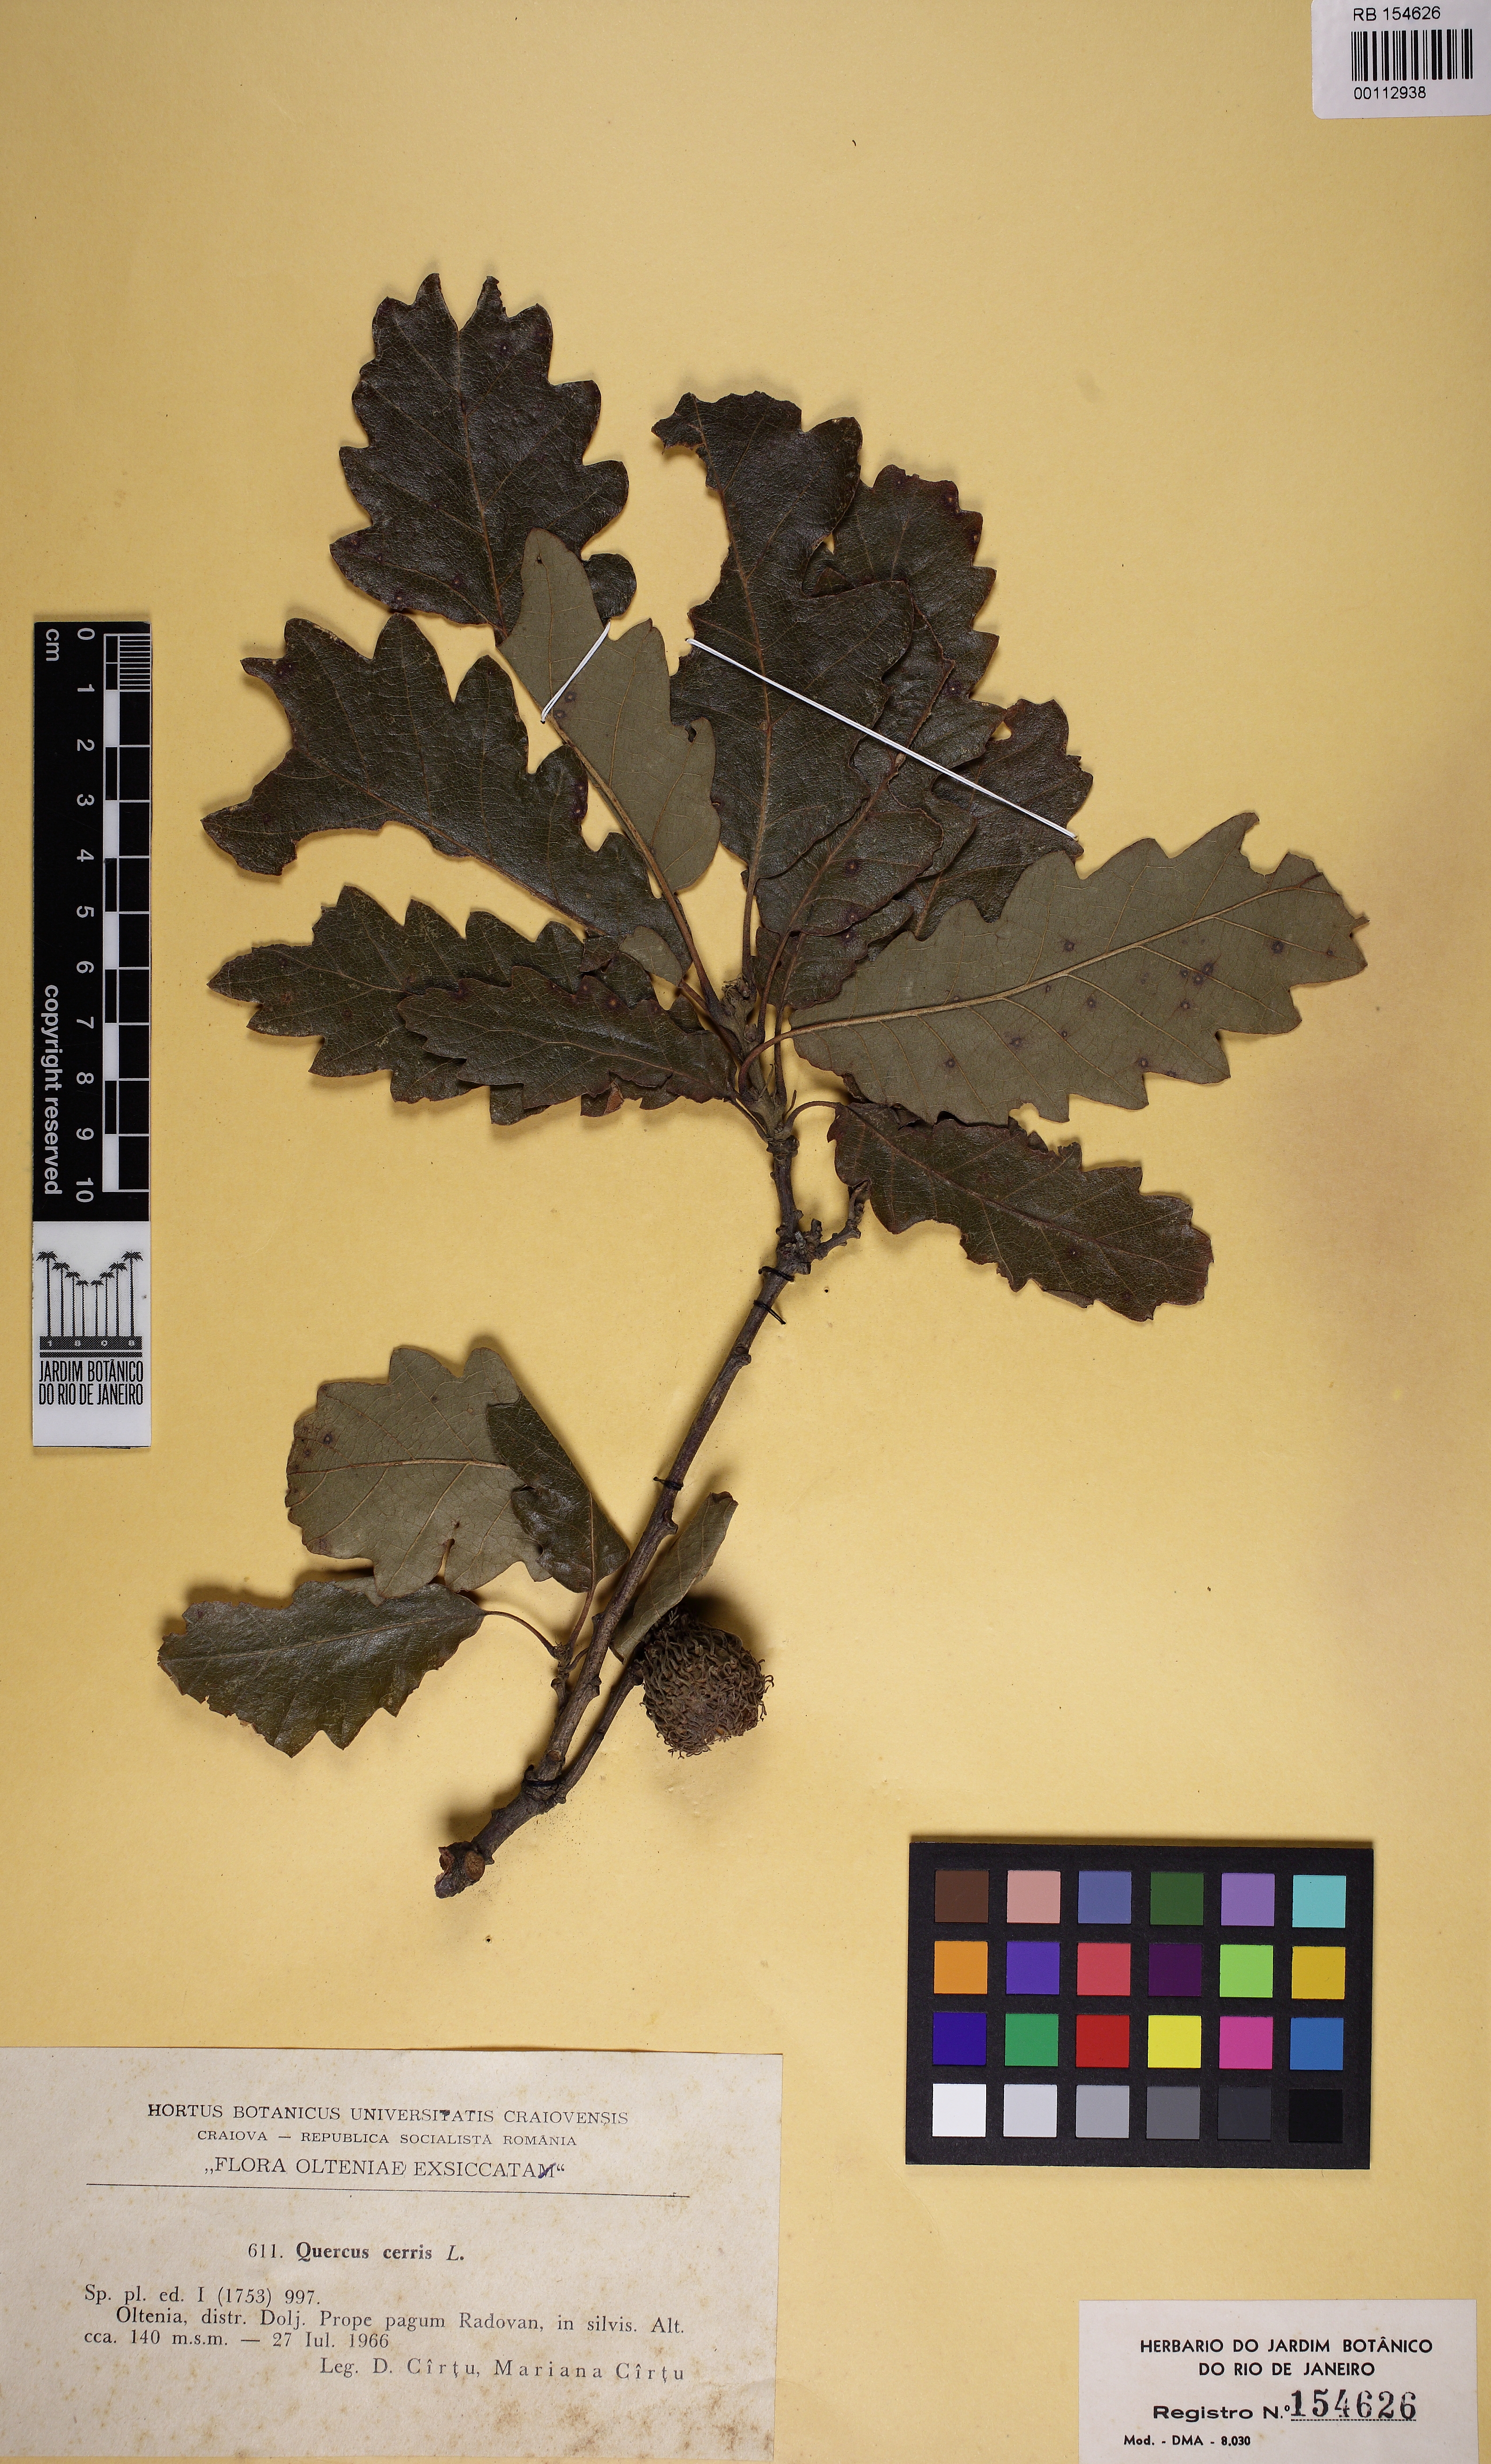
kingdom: Plantae
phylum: Tracheophyta
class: Magnoliopsida
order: Fagales
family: Fagaceae
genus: Quercus
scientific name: Quercus cerris
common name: Turkey oak
